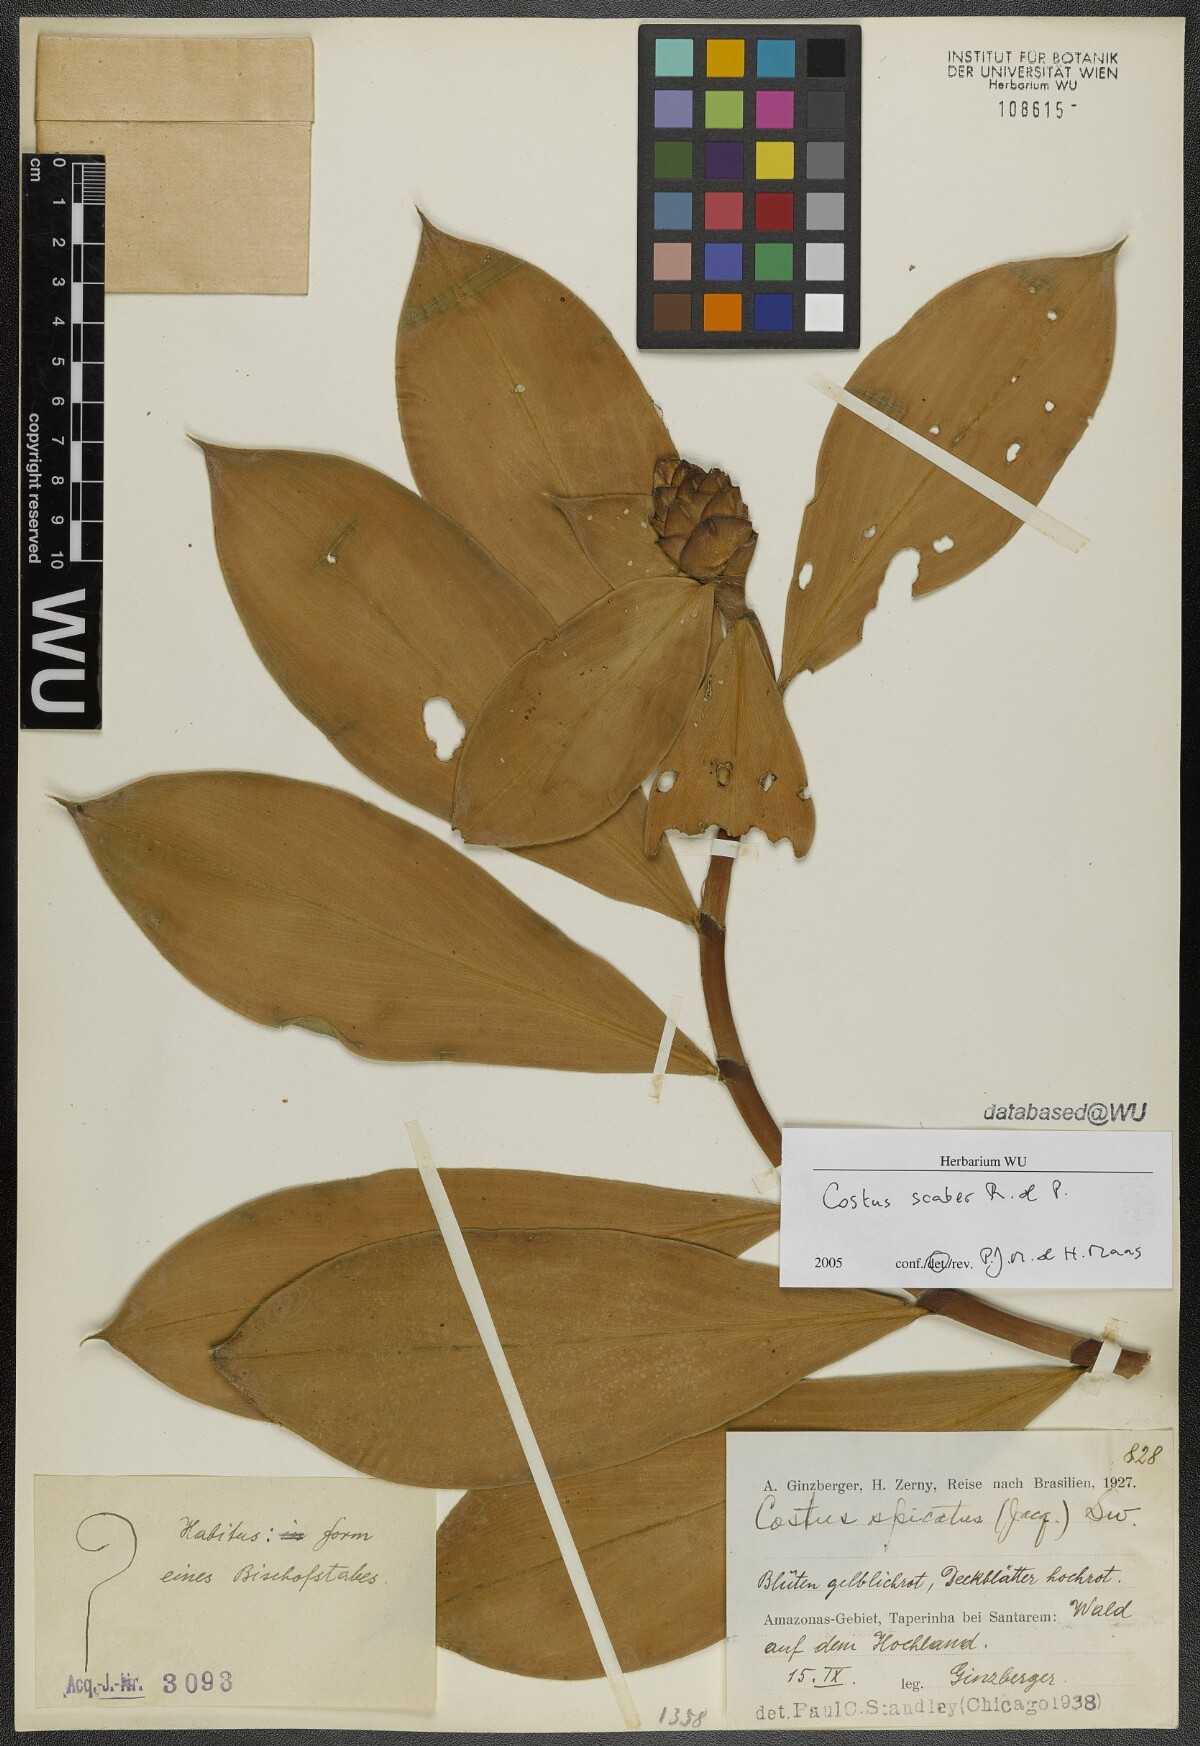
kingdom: Plantae
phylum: Tracheophyta
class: Liliopsida
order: Zingiberales
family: Costaceae
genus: Costus
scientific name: Costus scaber
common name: Spiral head ginger
